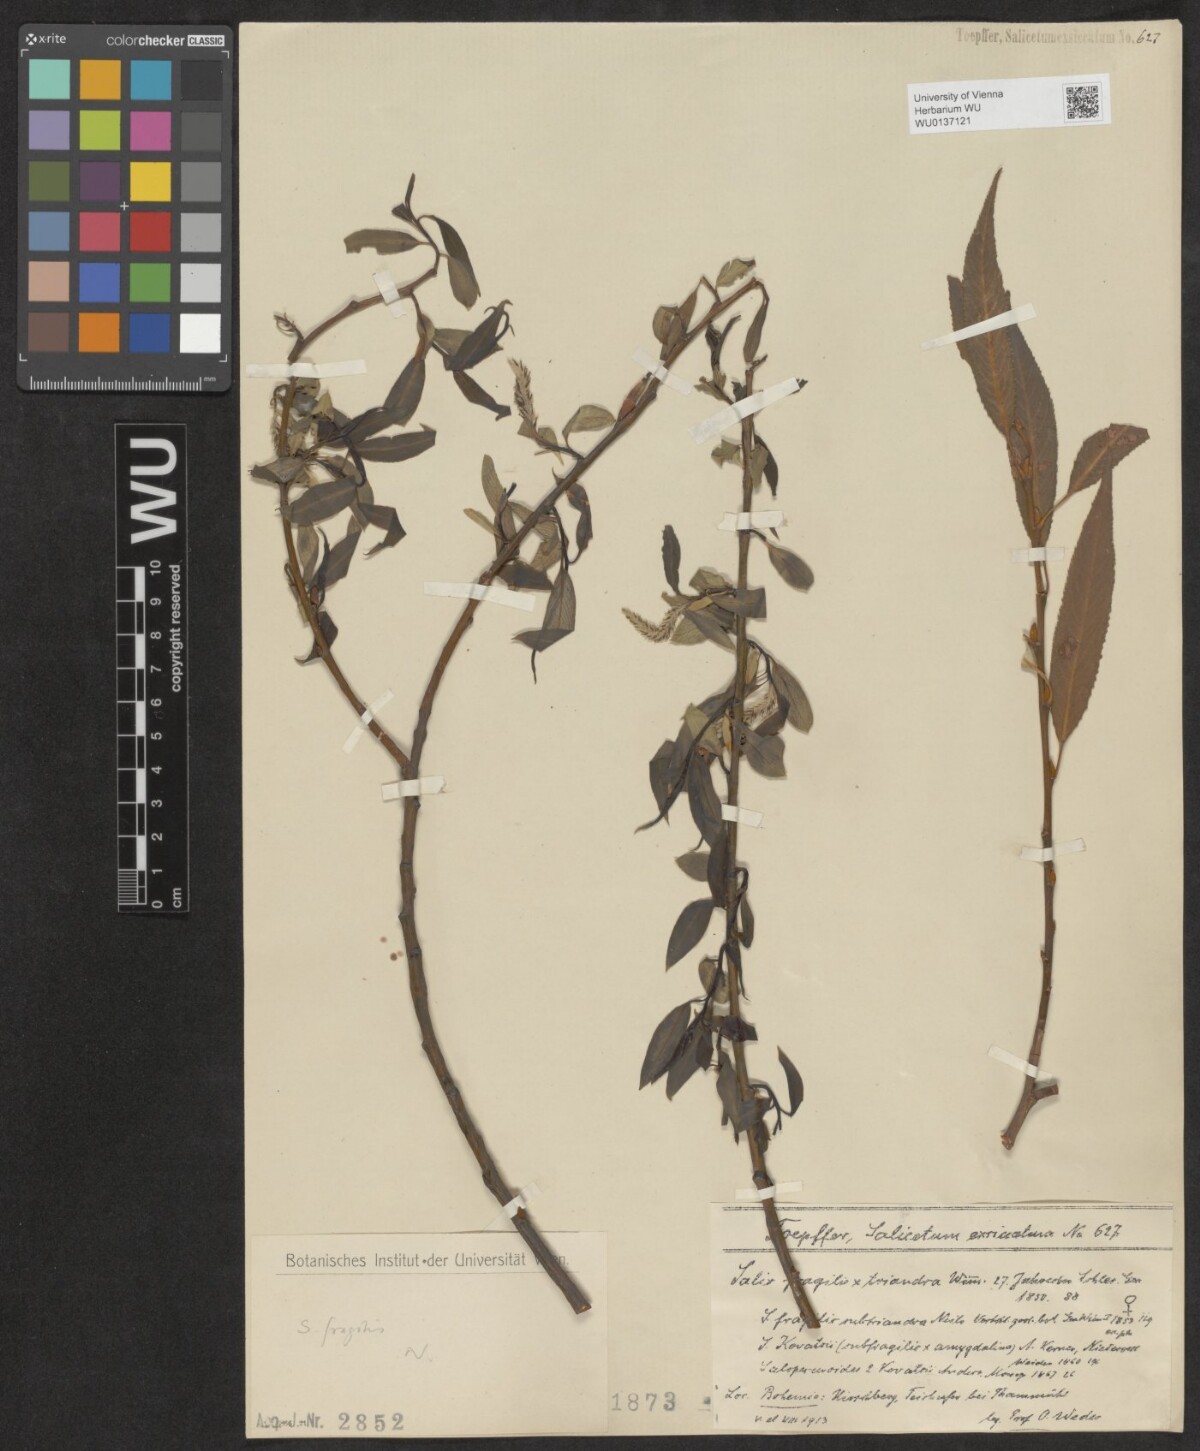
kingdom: Plantae
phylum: Tracheophyta
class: Magnoliopsida
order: Malpighiales
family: Salicaceae
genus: Salix
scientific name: Salix fragilis
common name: Crack willow
